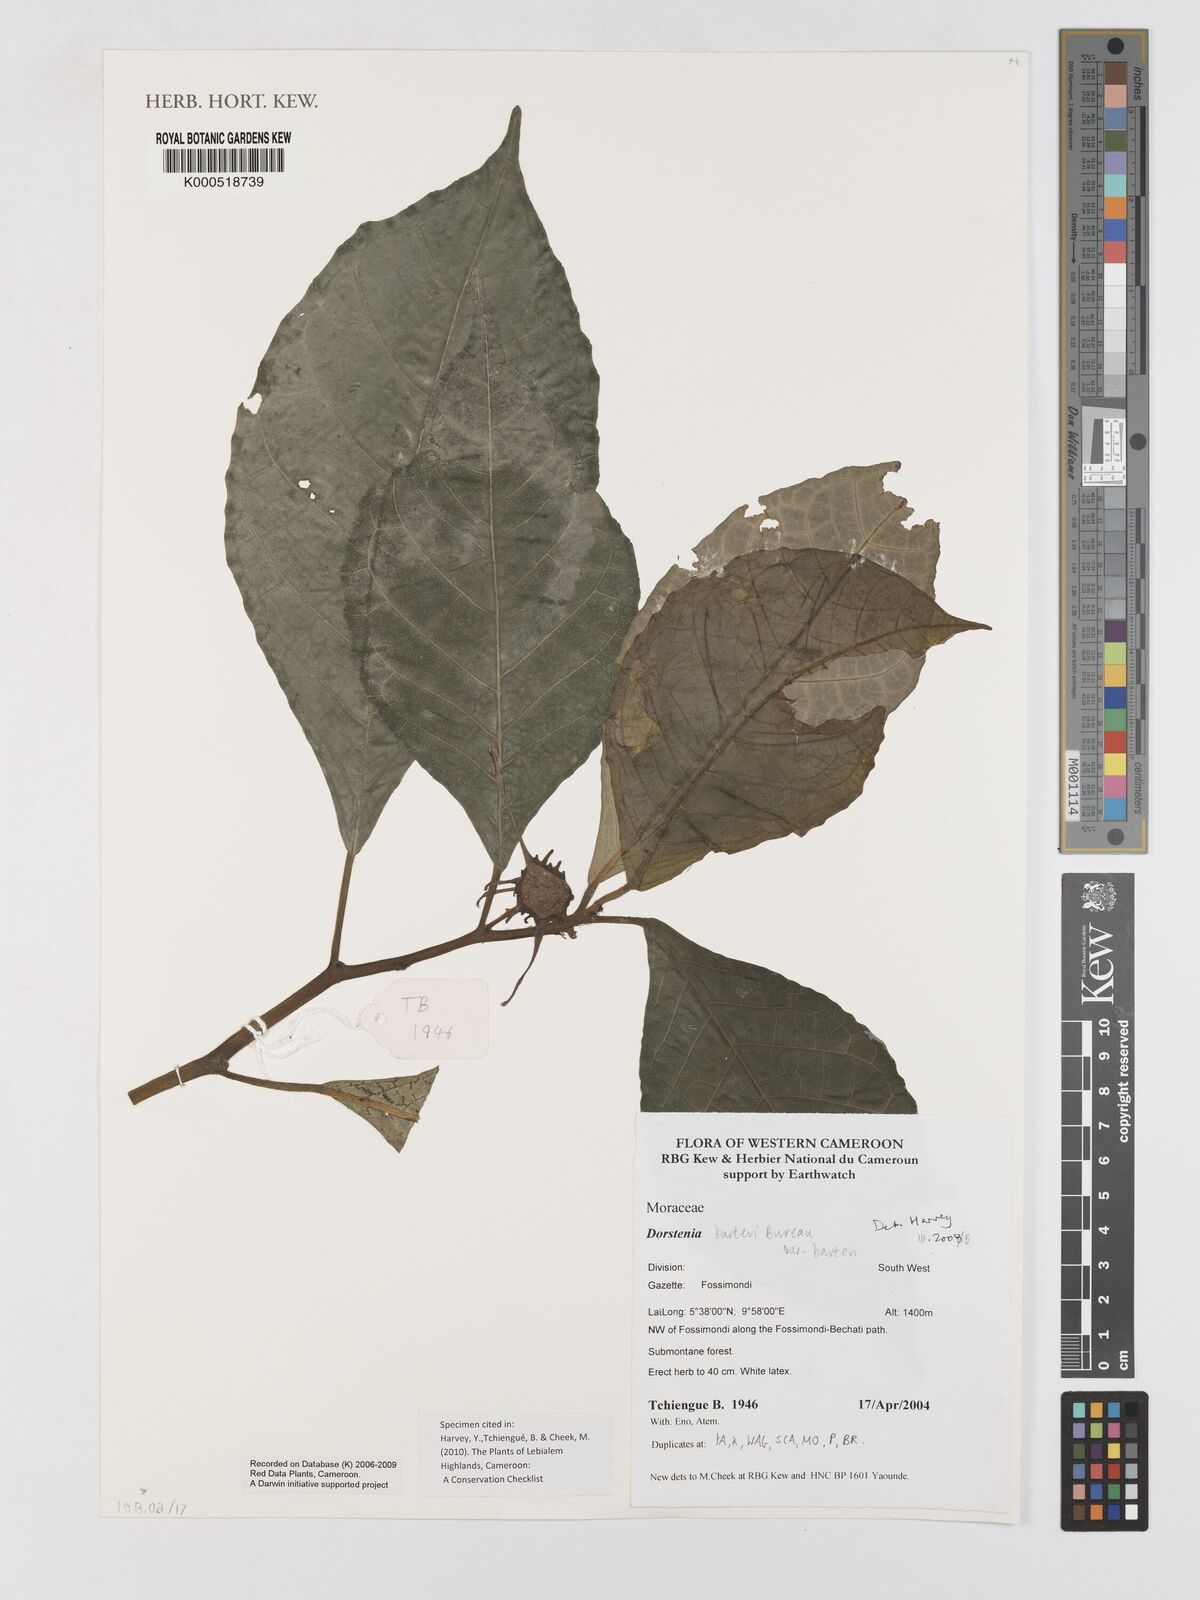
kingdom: Plantae
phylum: Tracheophyta
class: Magnoliopsida
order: Rosales
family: Moraceae
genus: Dorstenia
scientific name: Dorstenia barteri
